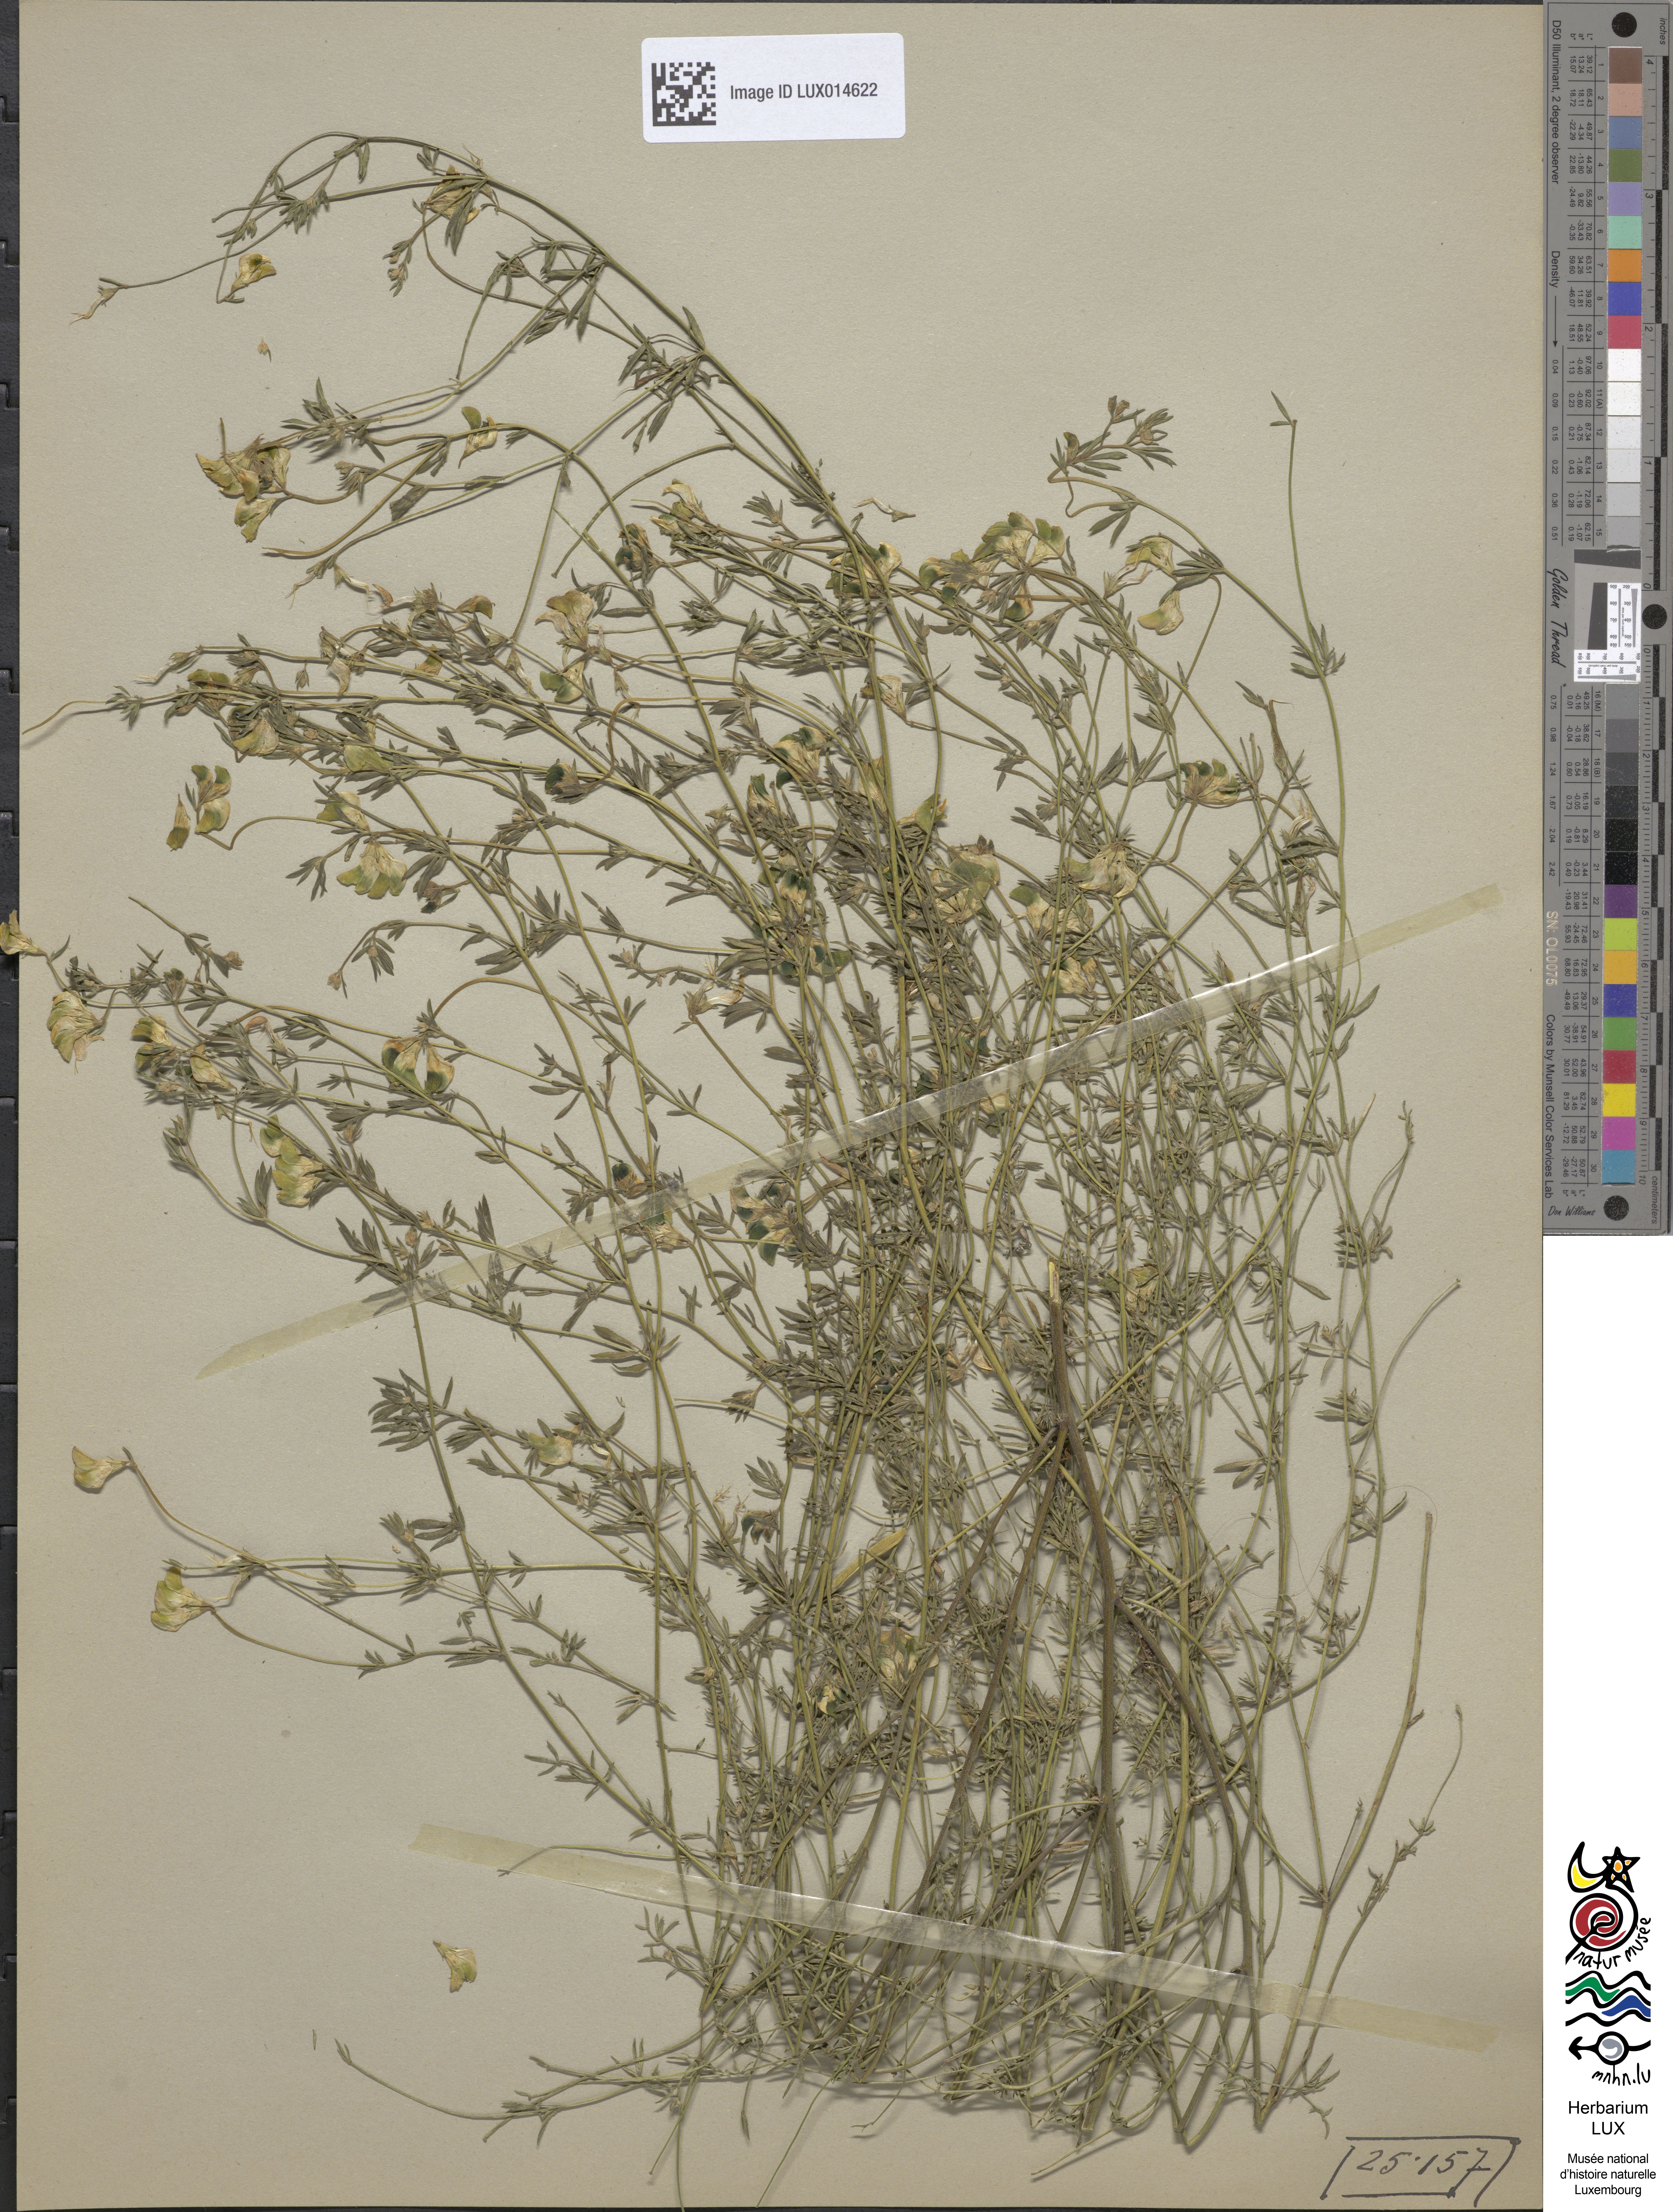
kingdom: Plantae
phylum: Tracheophyta
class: Magnoliopsida
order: Fabales
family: Fabaceae
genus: Lotus
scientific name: Lotus tenuis
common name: Narrow-leaved bird's-foot-trefoil
